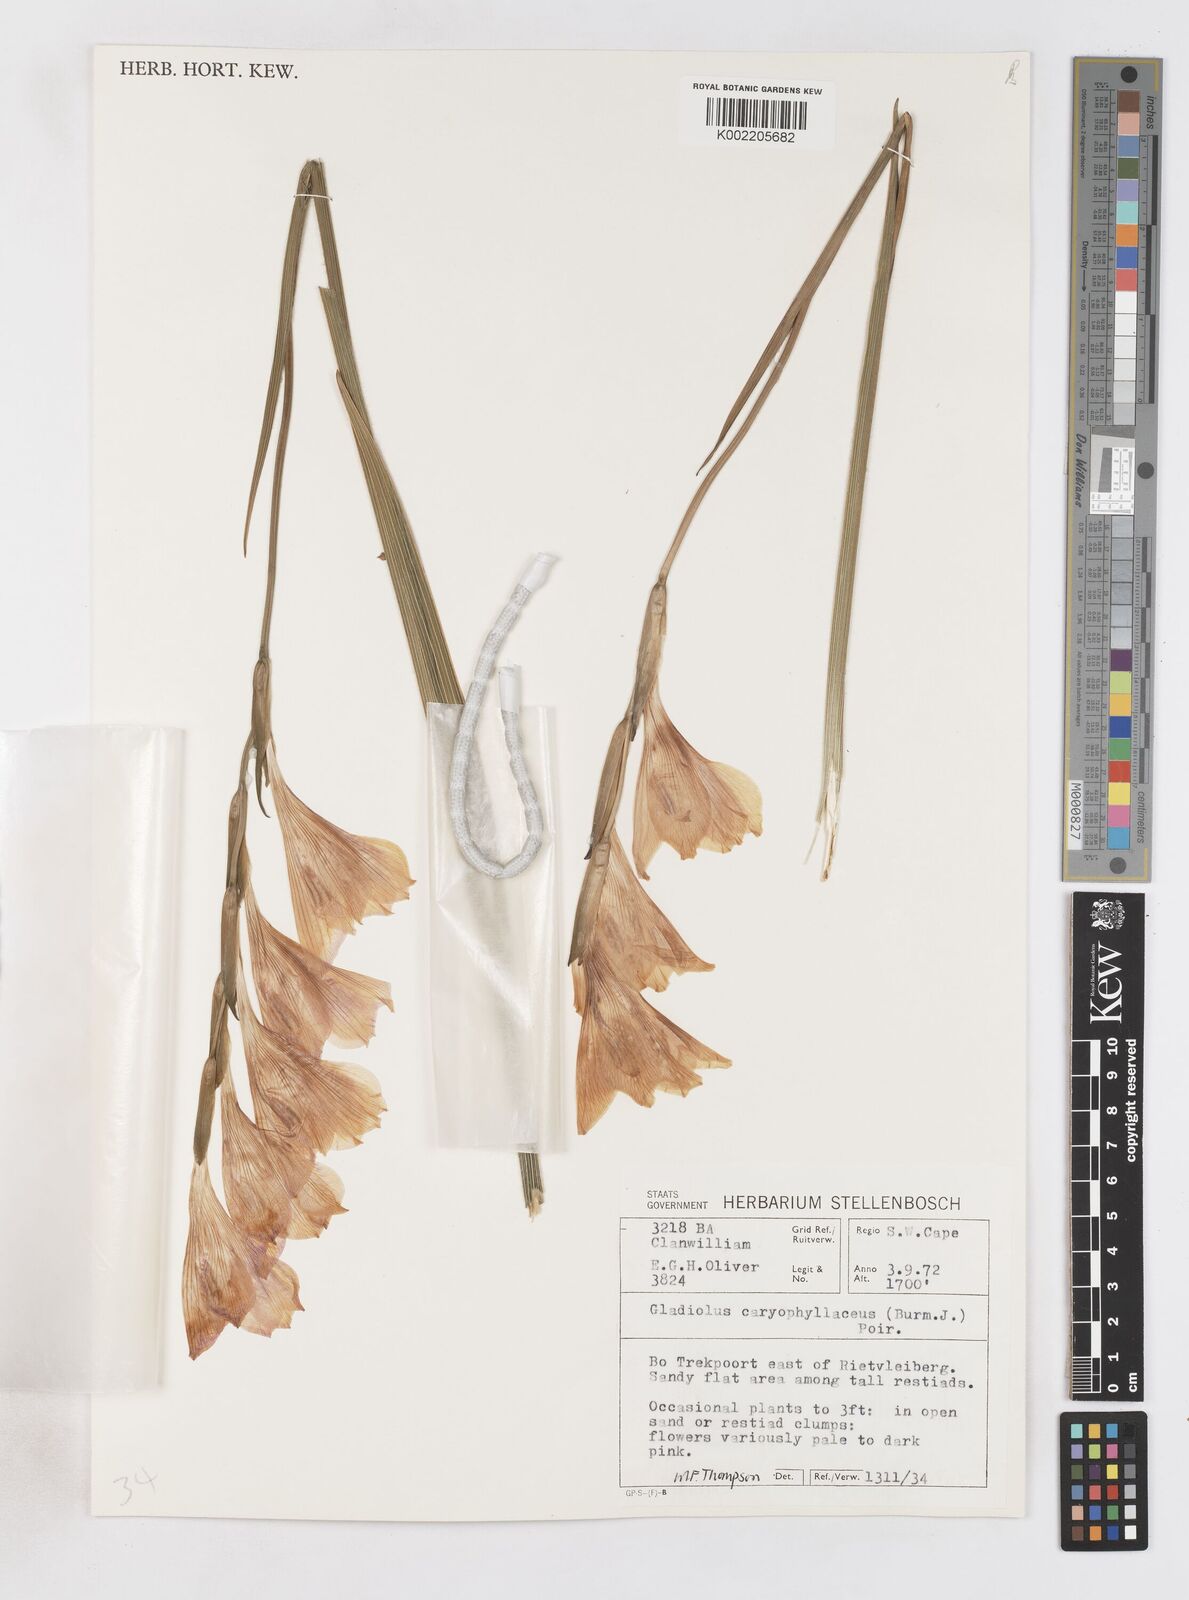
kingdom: Plantae
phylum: Tracheophyta
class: Liliopsida
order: Asparagales
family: Iridaceae
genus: Gladiolus
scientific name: Gladiolus caryophyllaceus
